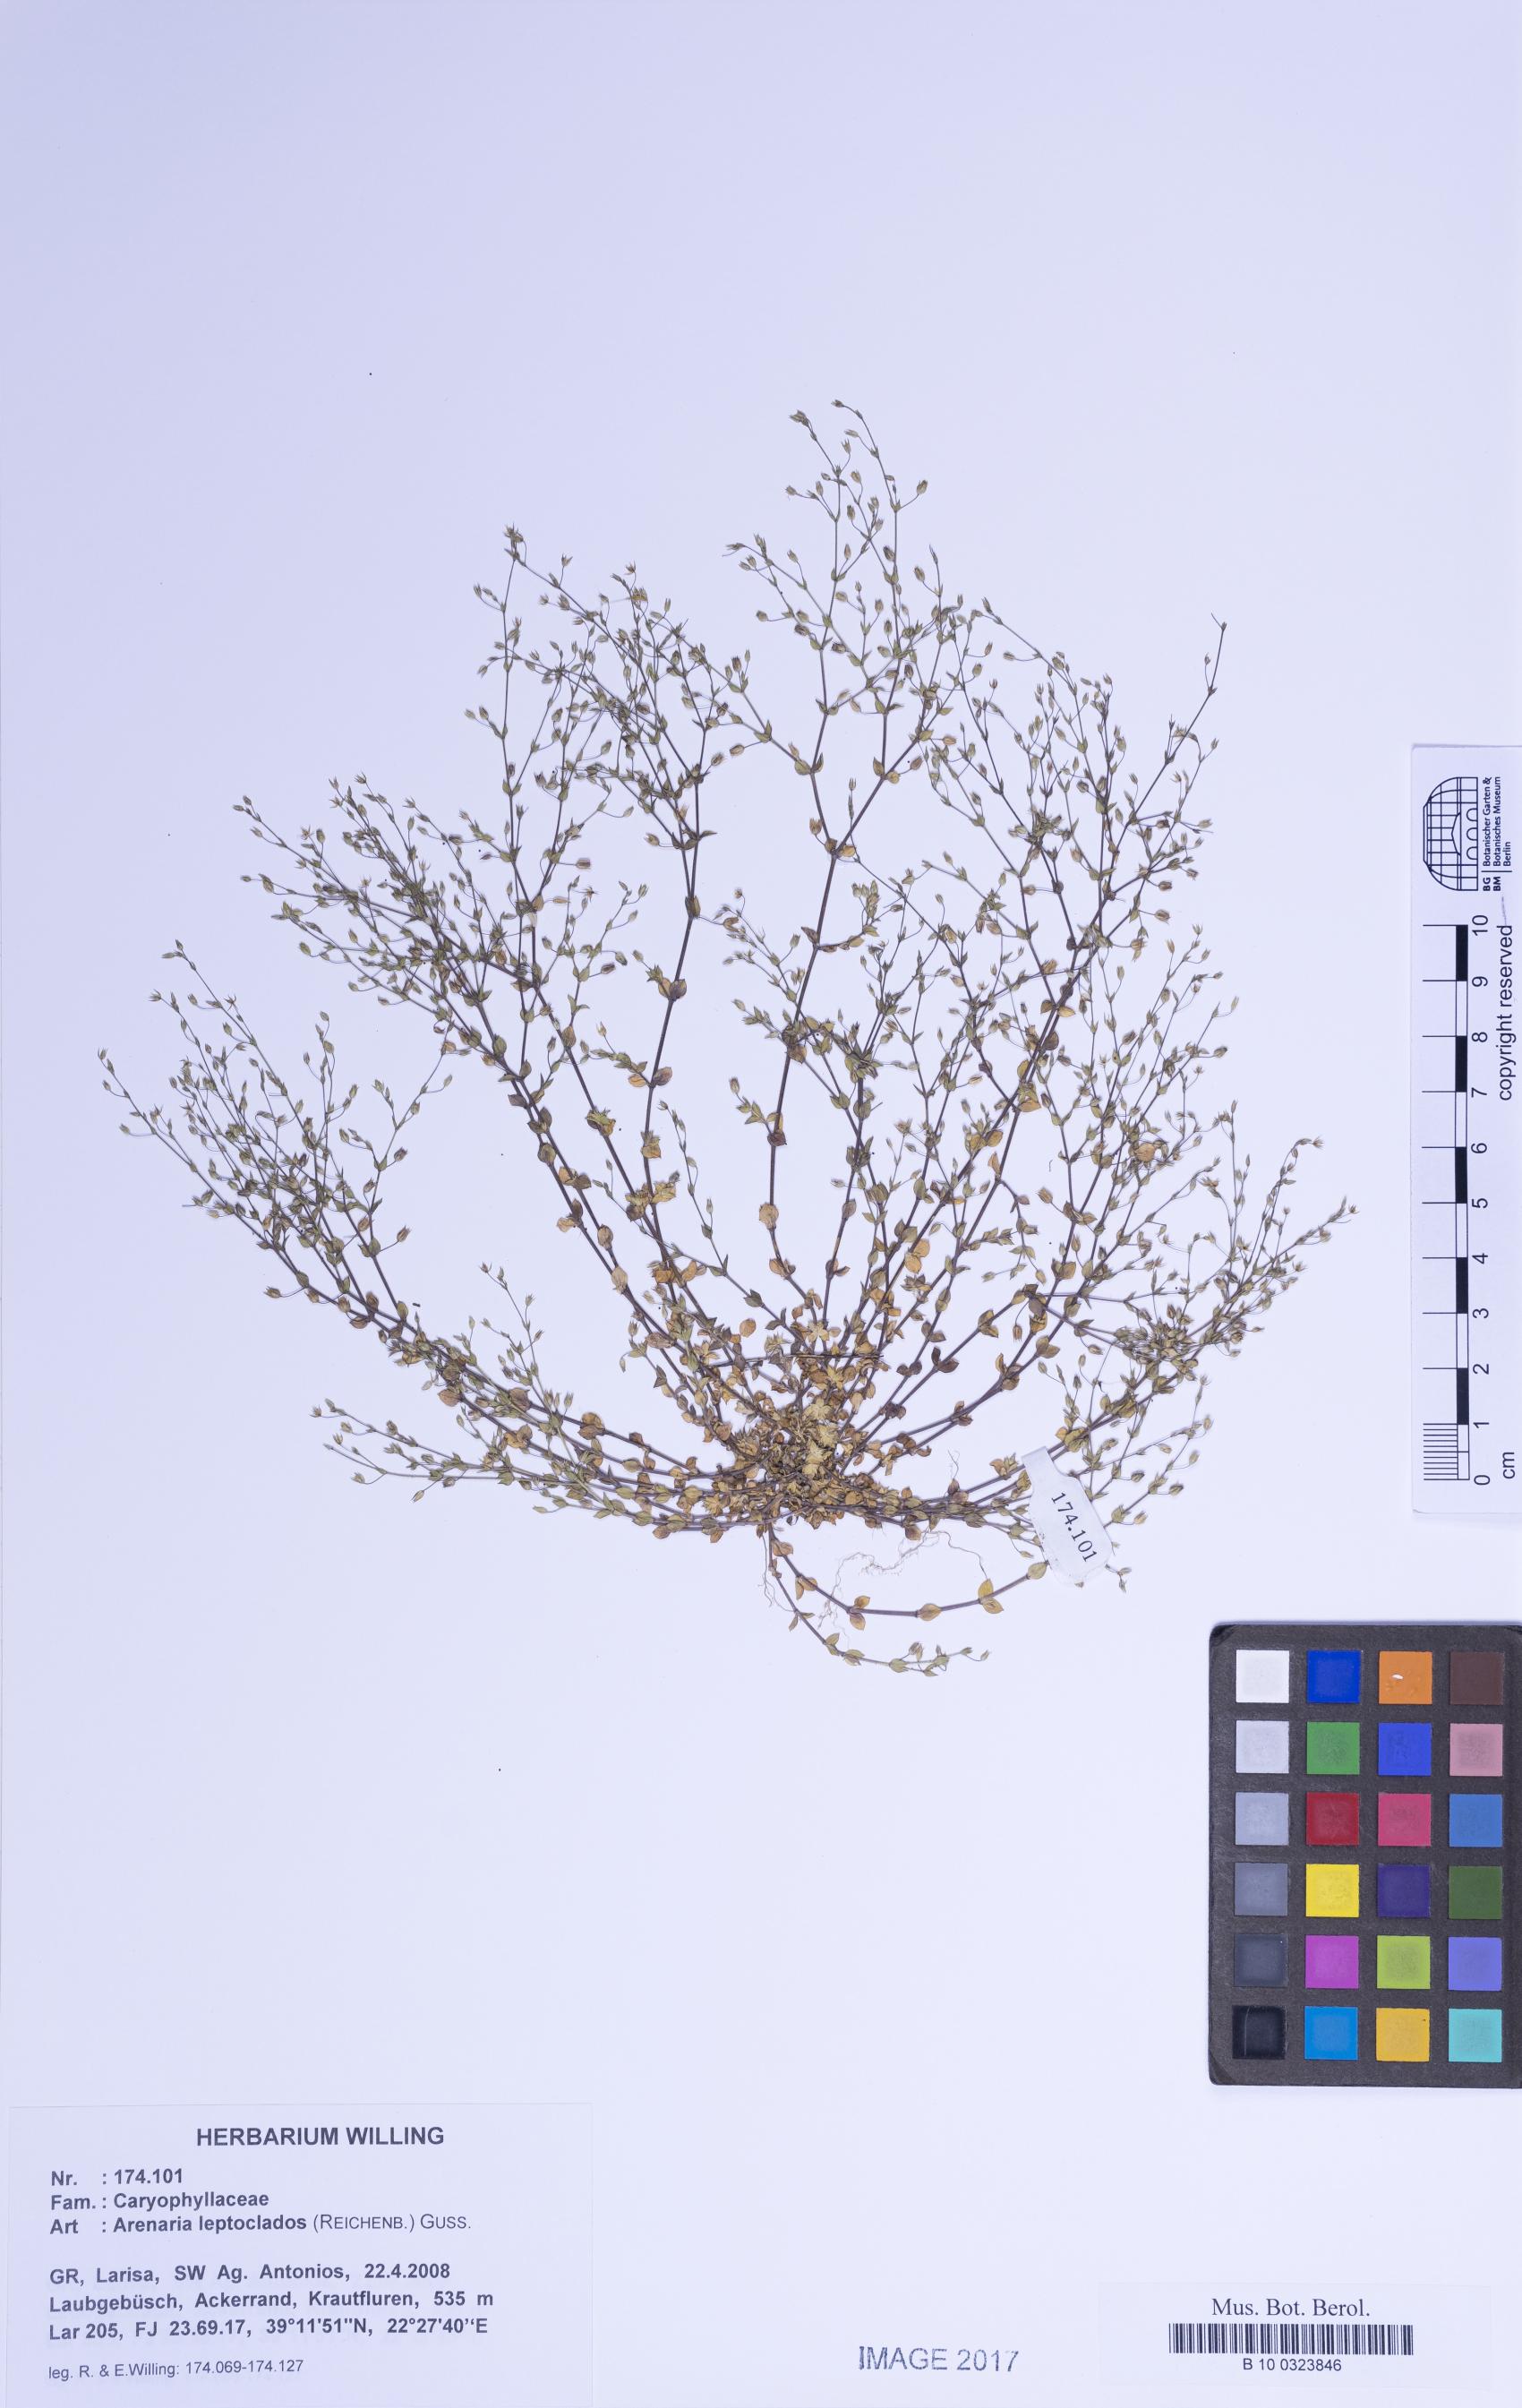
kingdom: Plantae
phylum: Tracheophyta
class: Magnoliopsida
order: Caryophyllales
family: Caryophyllaceae
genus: Arenaria
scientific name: Arenaria leptoclados
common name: Thyme-leaved sandwort
